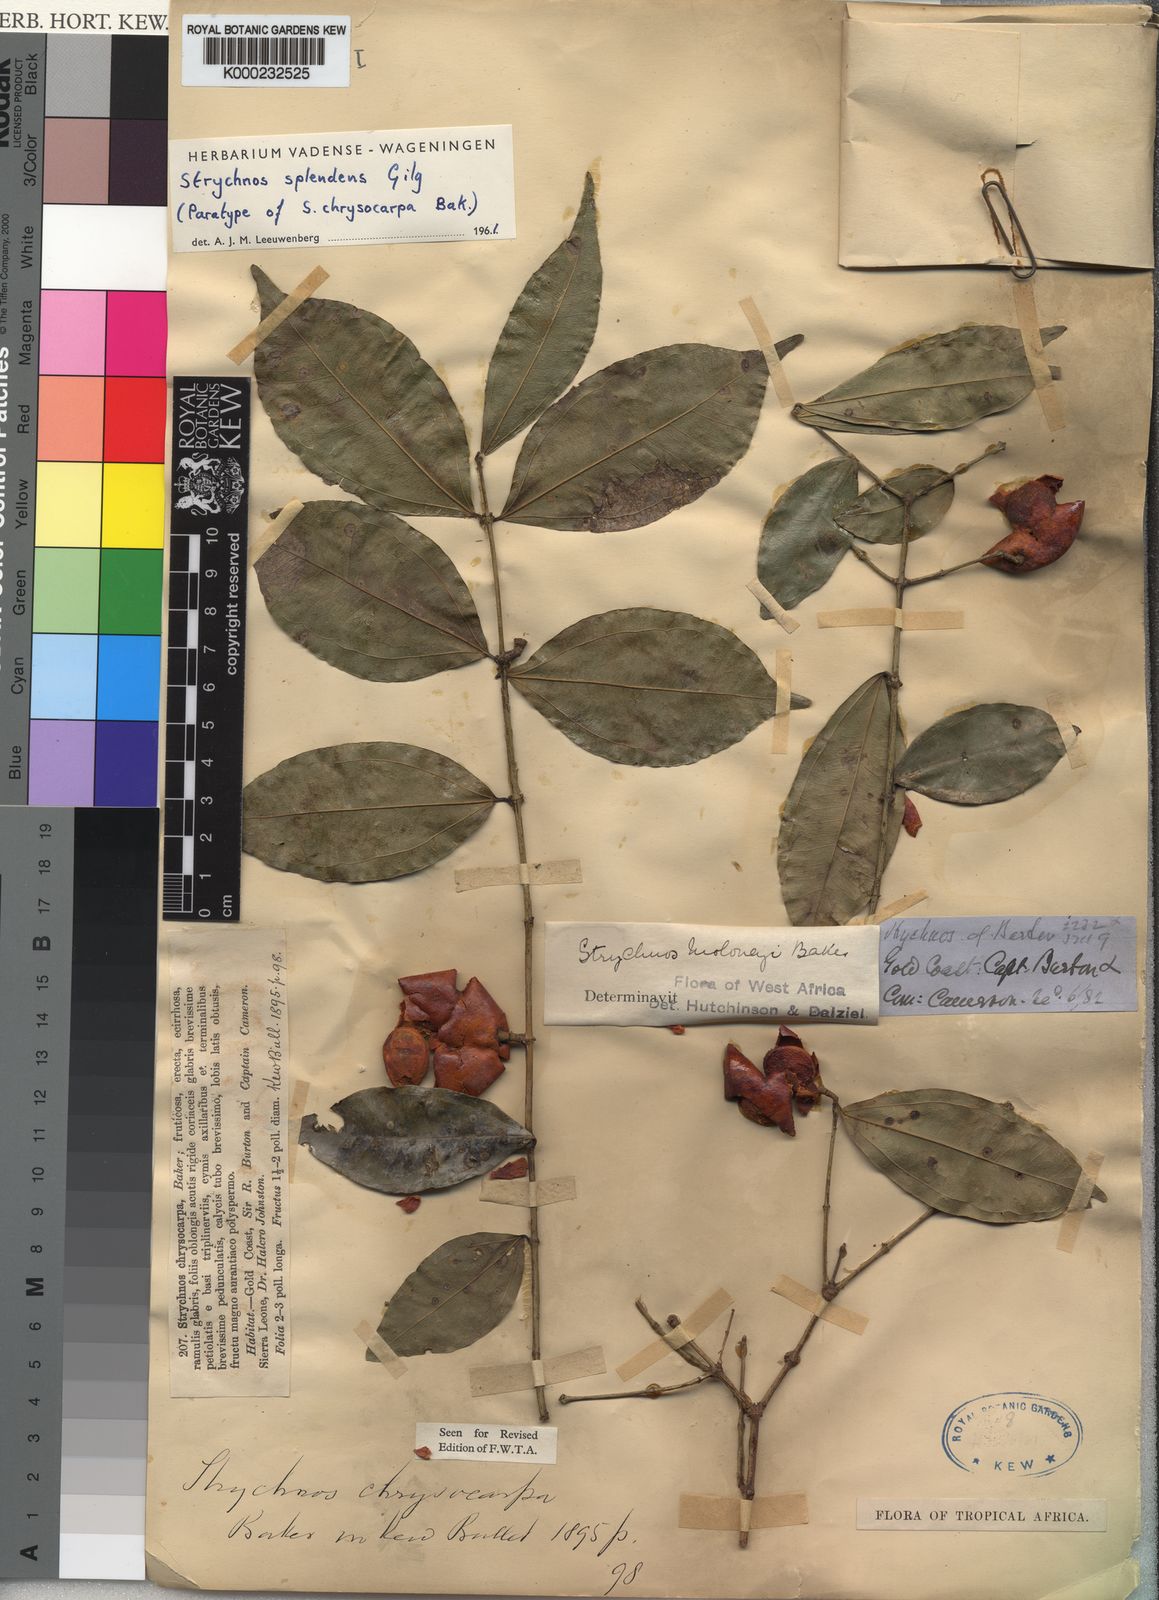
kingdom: Plantae
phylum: Tracheophyta
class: Magnoliopsida
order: Gentianales
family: Loganiaceae
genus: Strychnos
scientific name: Strychnos splendens
